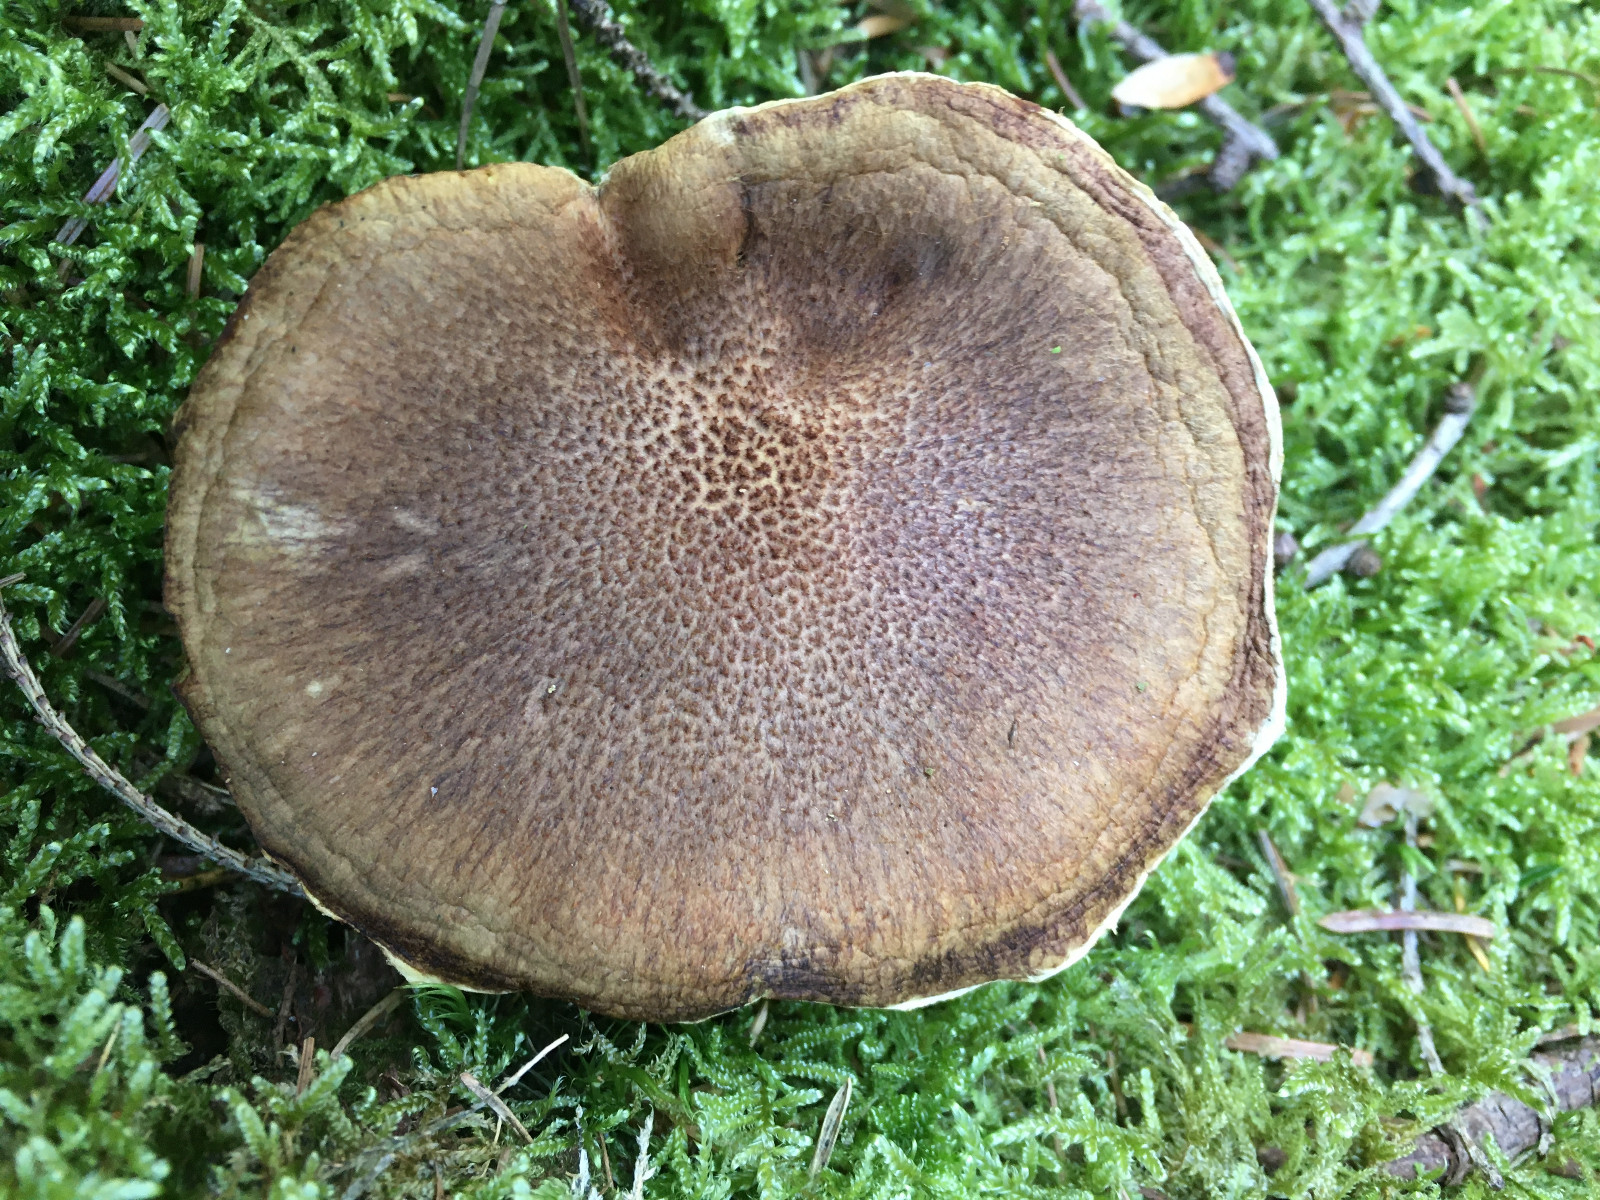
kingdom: Fungi
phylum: Basidiomycota
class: Agaricomycetes
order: Boletales
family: Suillaceae
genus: Suillus
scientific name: Suillus cavipes
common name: hulstokket slimrørhat
